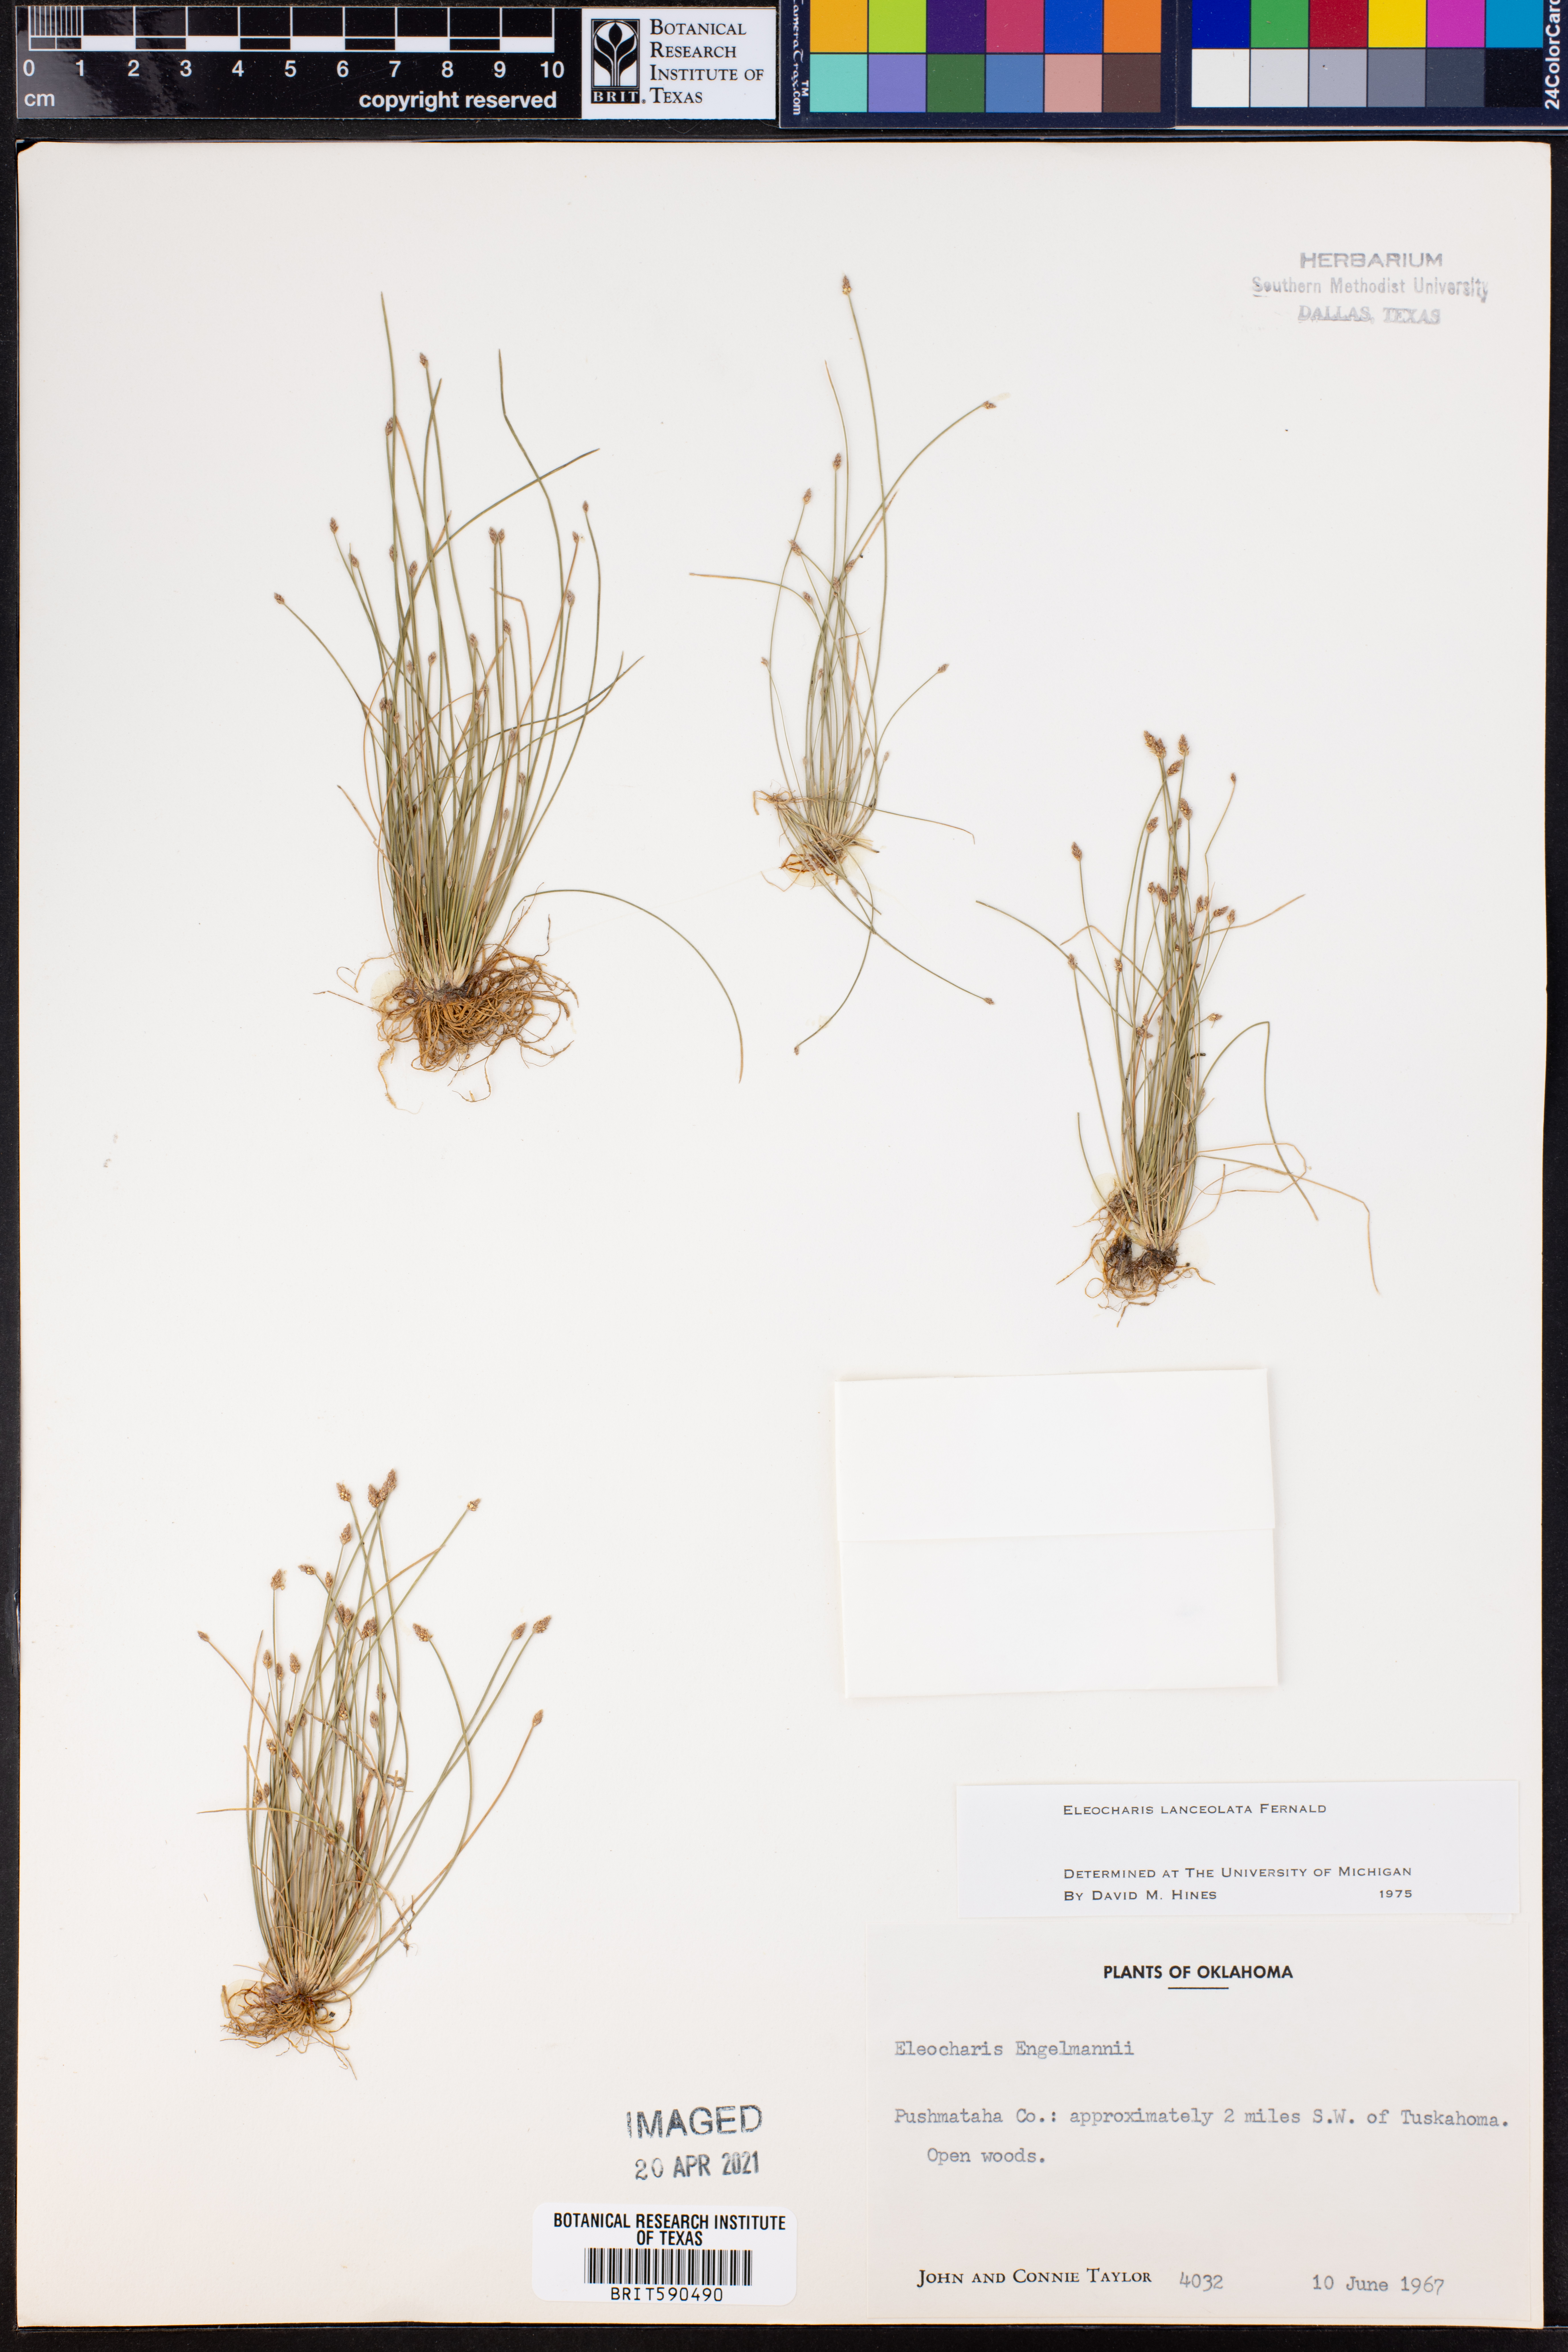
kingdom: Plantae
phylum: Tracheophyta
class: Liliopsida
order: Poales
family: Cyperaceae
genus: Eleocharis
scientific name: Eleocharis lanceolata
